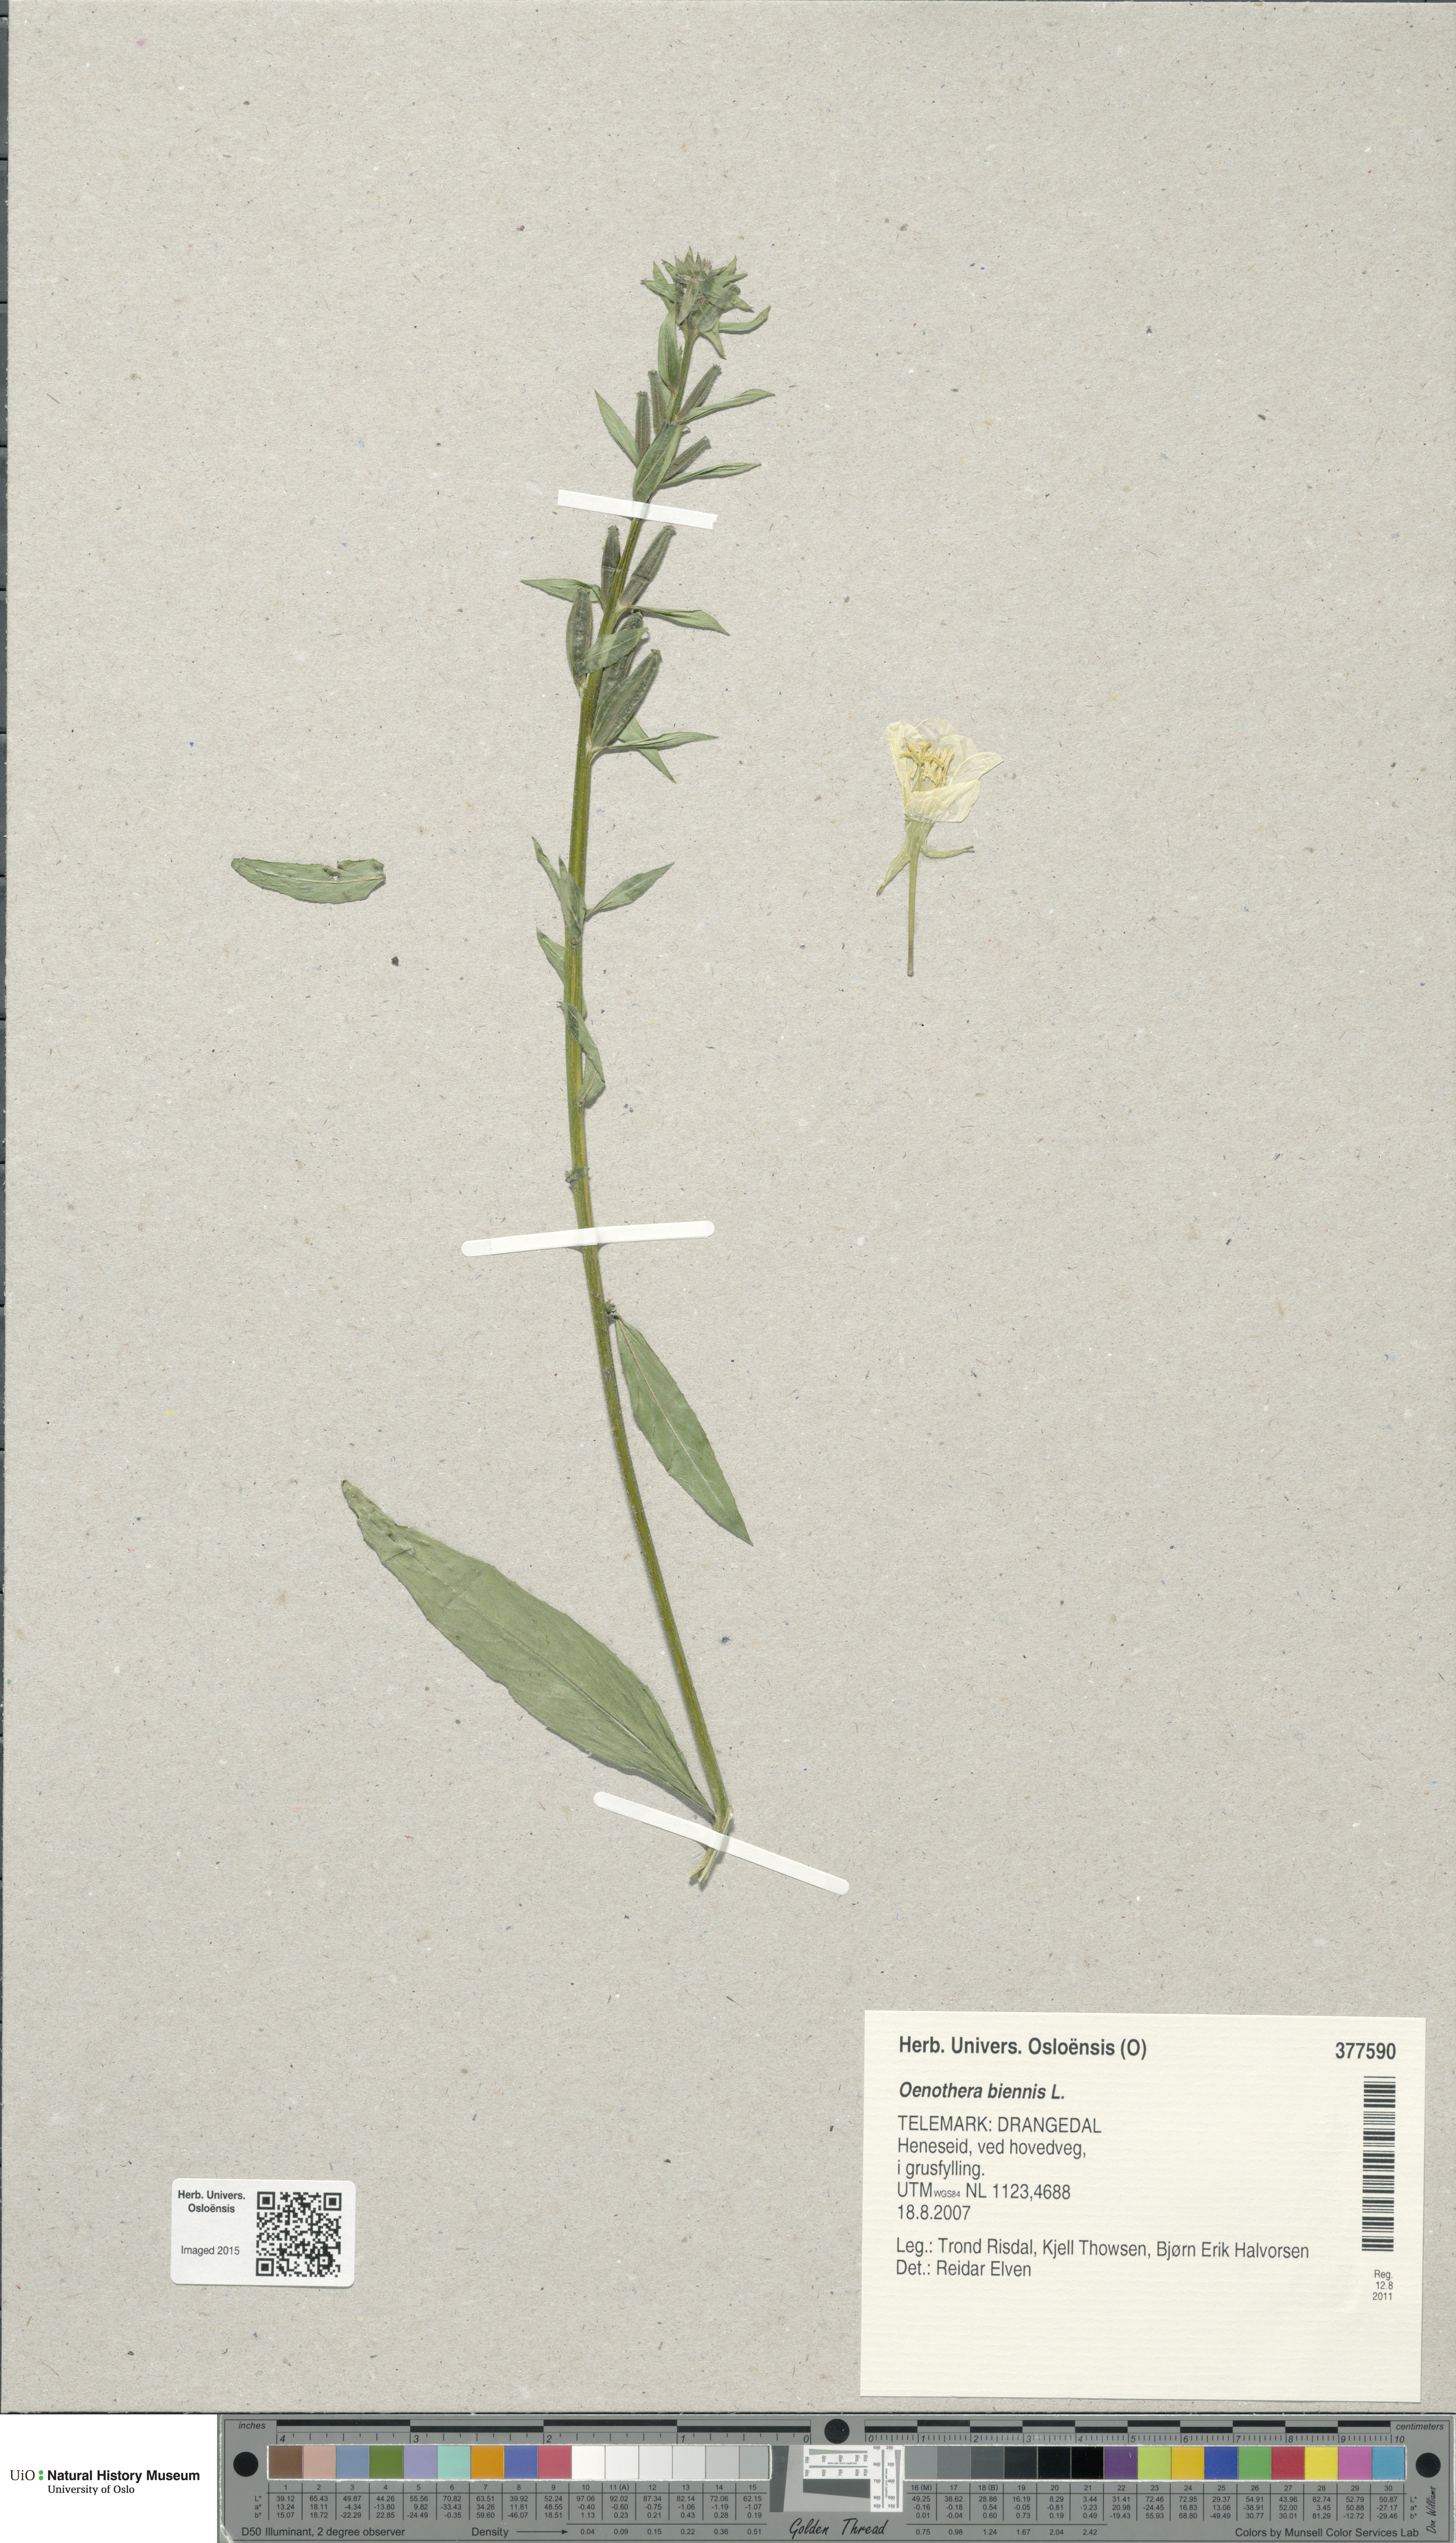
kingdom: Plantae
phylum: Tracheophyta
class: Magnoliopsida
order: Myrtales
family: Onagraceae
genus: Oenothera
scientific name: Oenothera biennis
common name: Common evening-primrose
